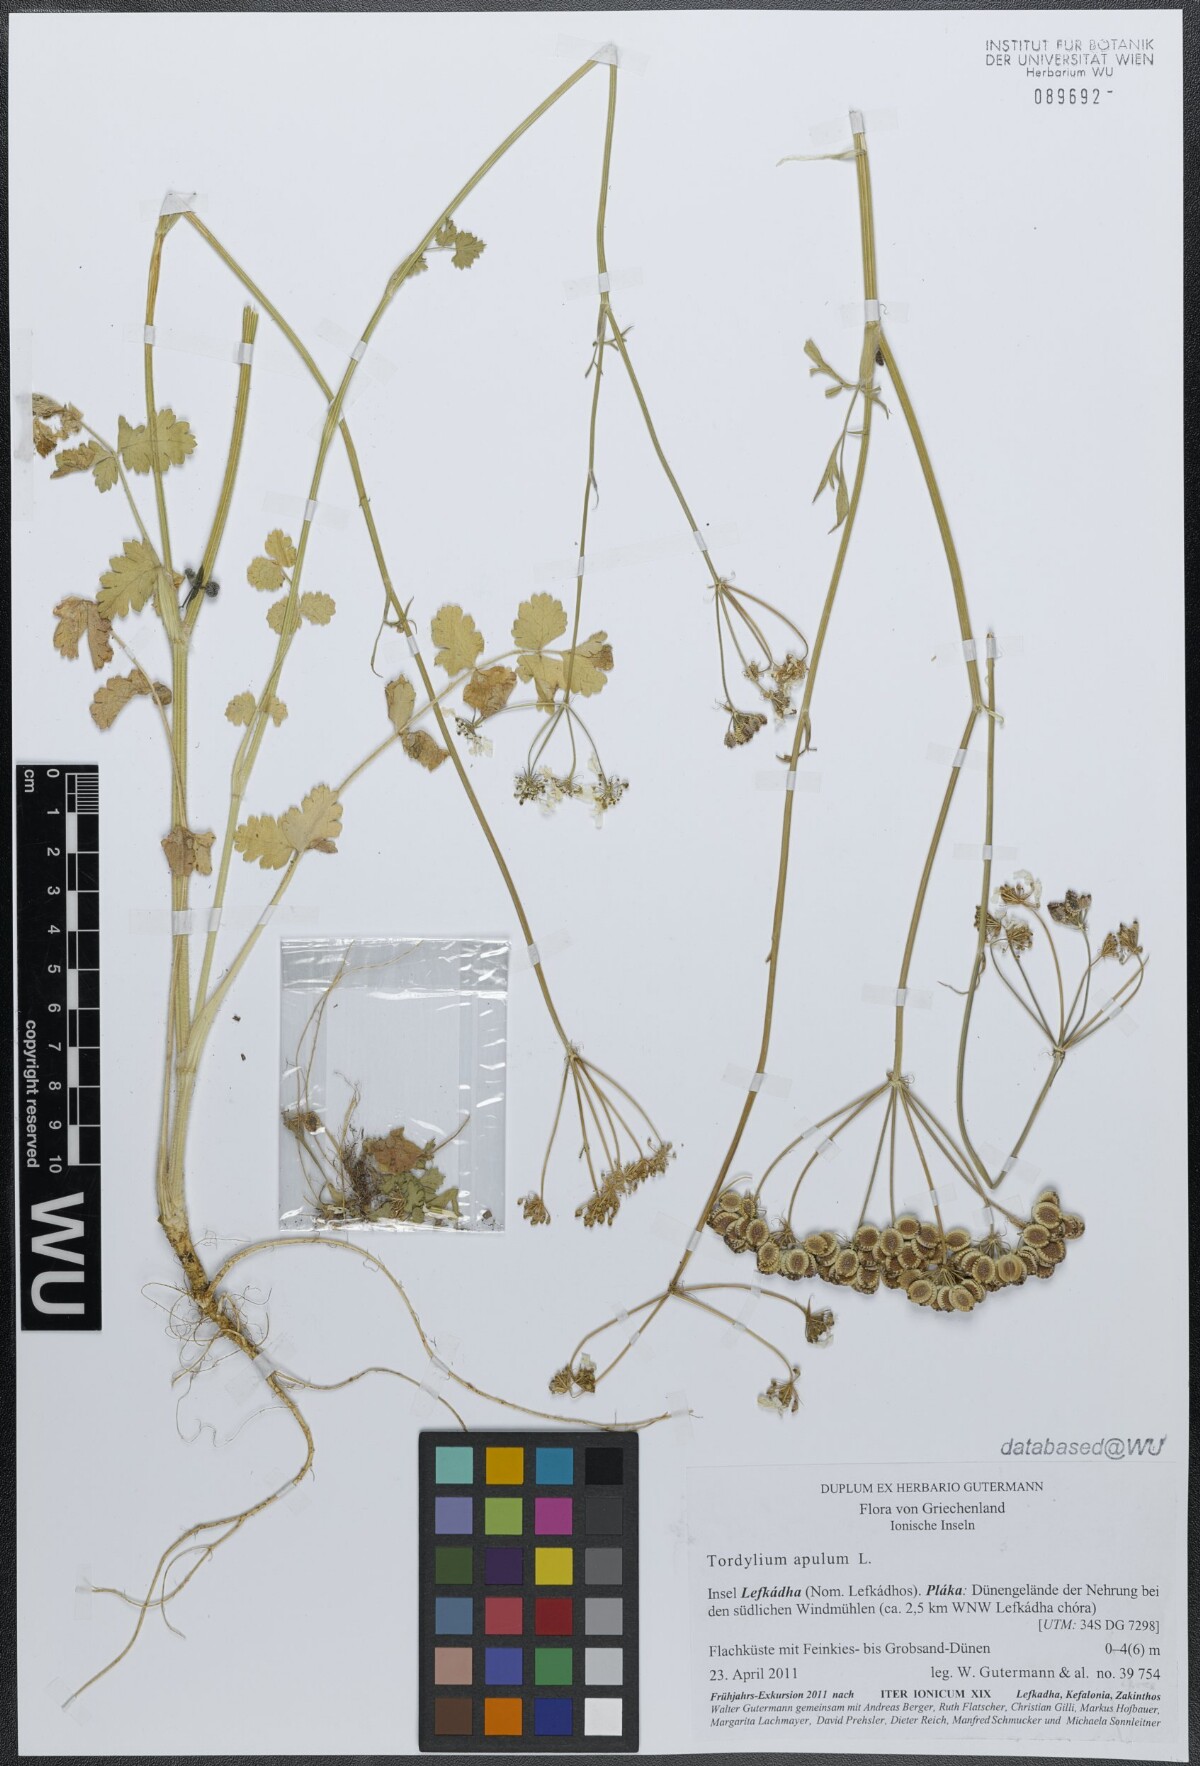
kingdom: Plantae
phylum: Tracheophyta
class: Magnoliopsida
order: Apiales
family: Apiaceae
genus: Tordylium
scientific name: Tordylium apulum
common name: Mediterranean hartwort
